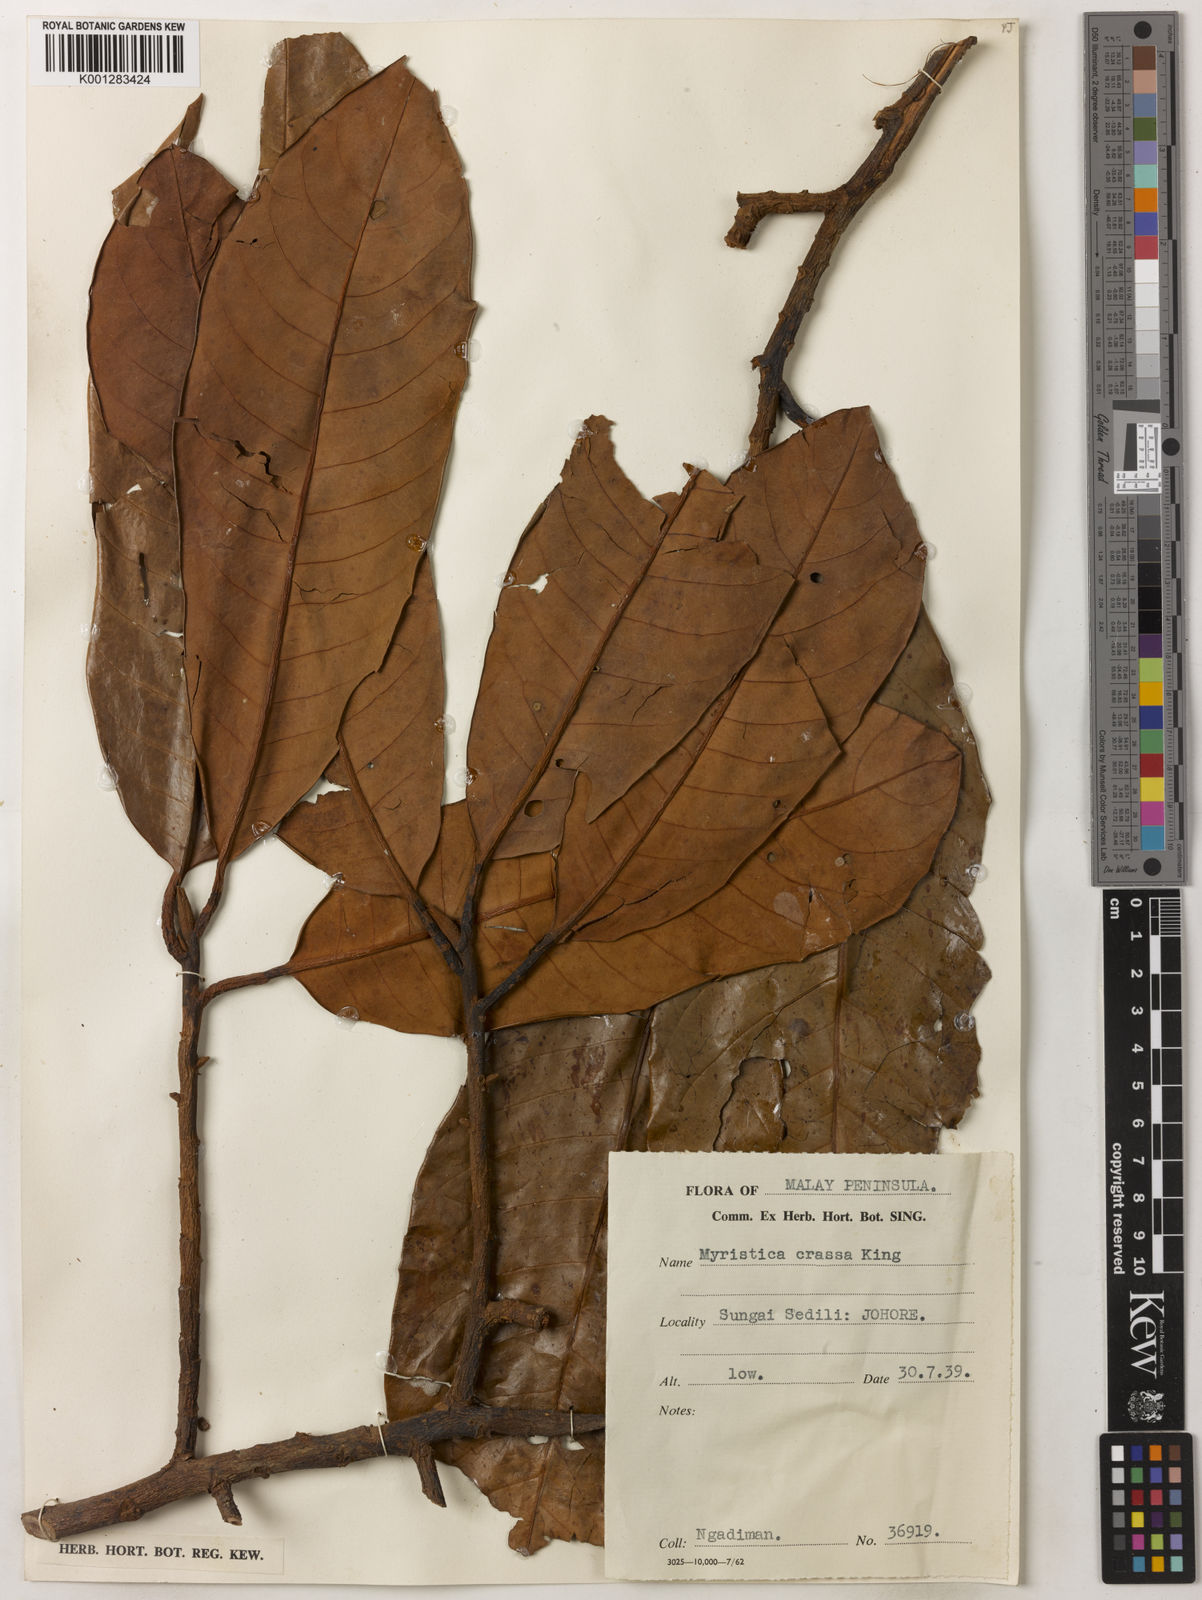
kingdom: Plantae
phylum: Tracheophyta
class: Magnoliopsida
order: Magnoliales
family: Myristicaceae
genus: Myristica
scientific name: Myristica crassa
